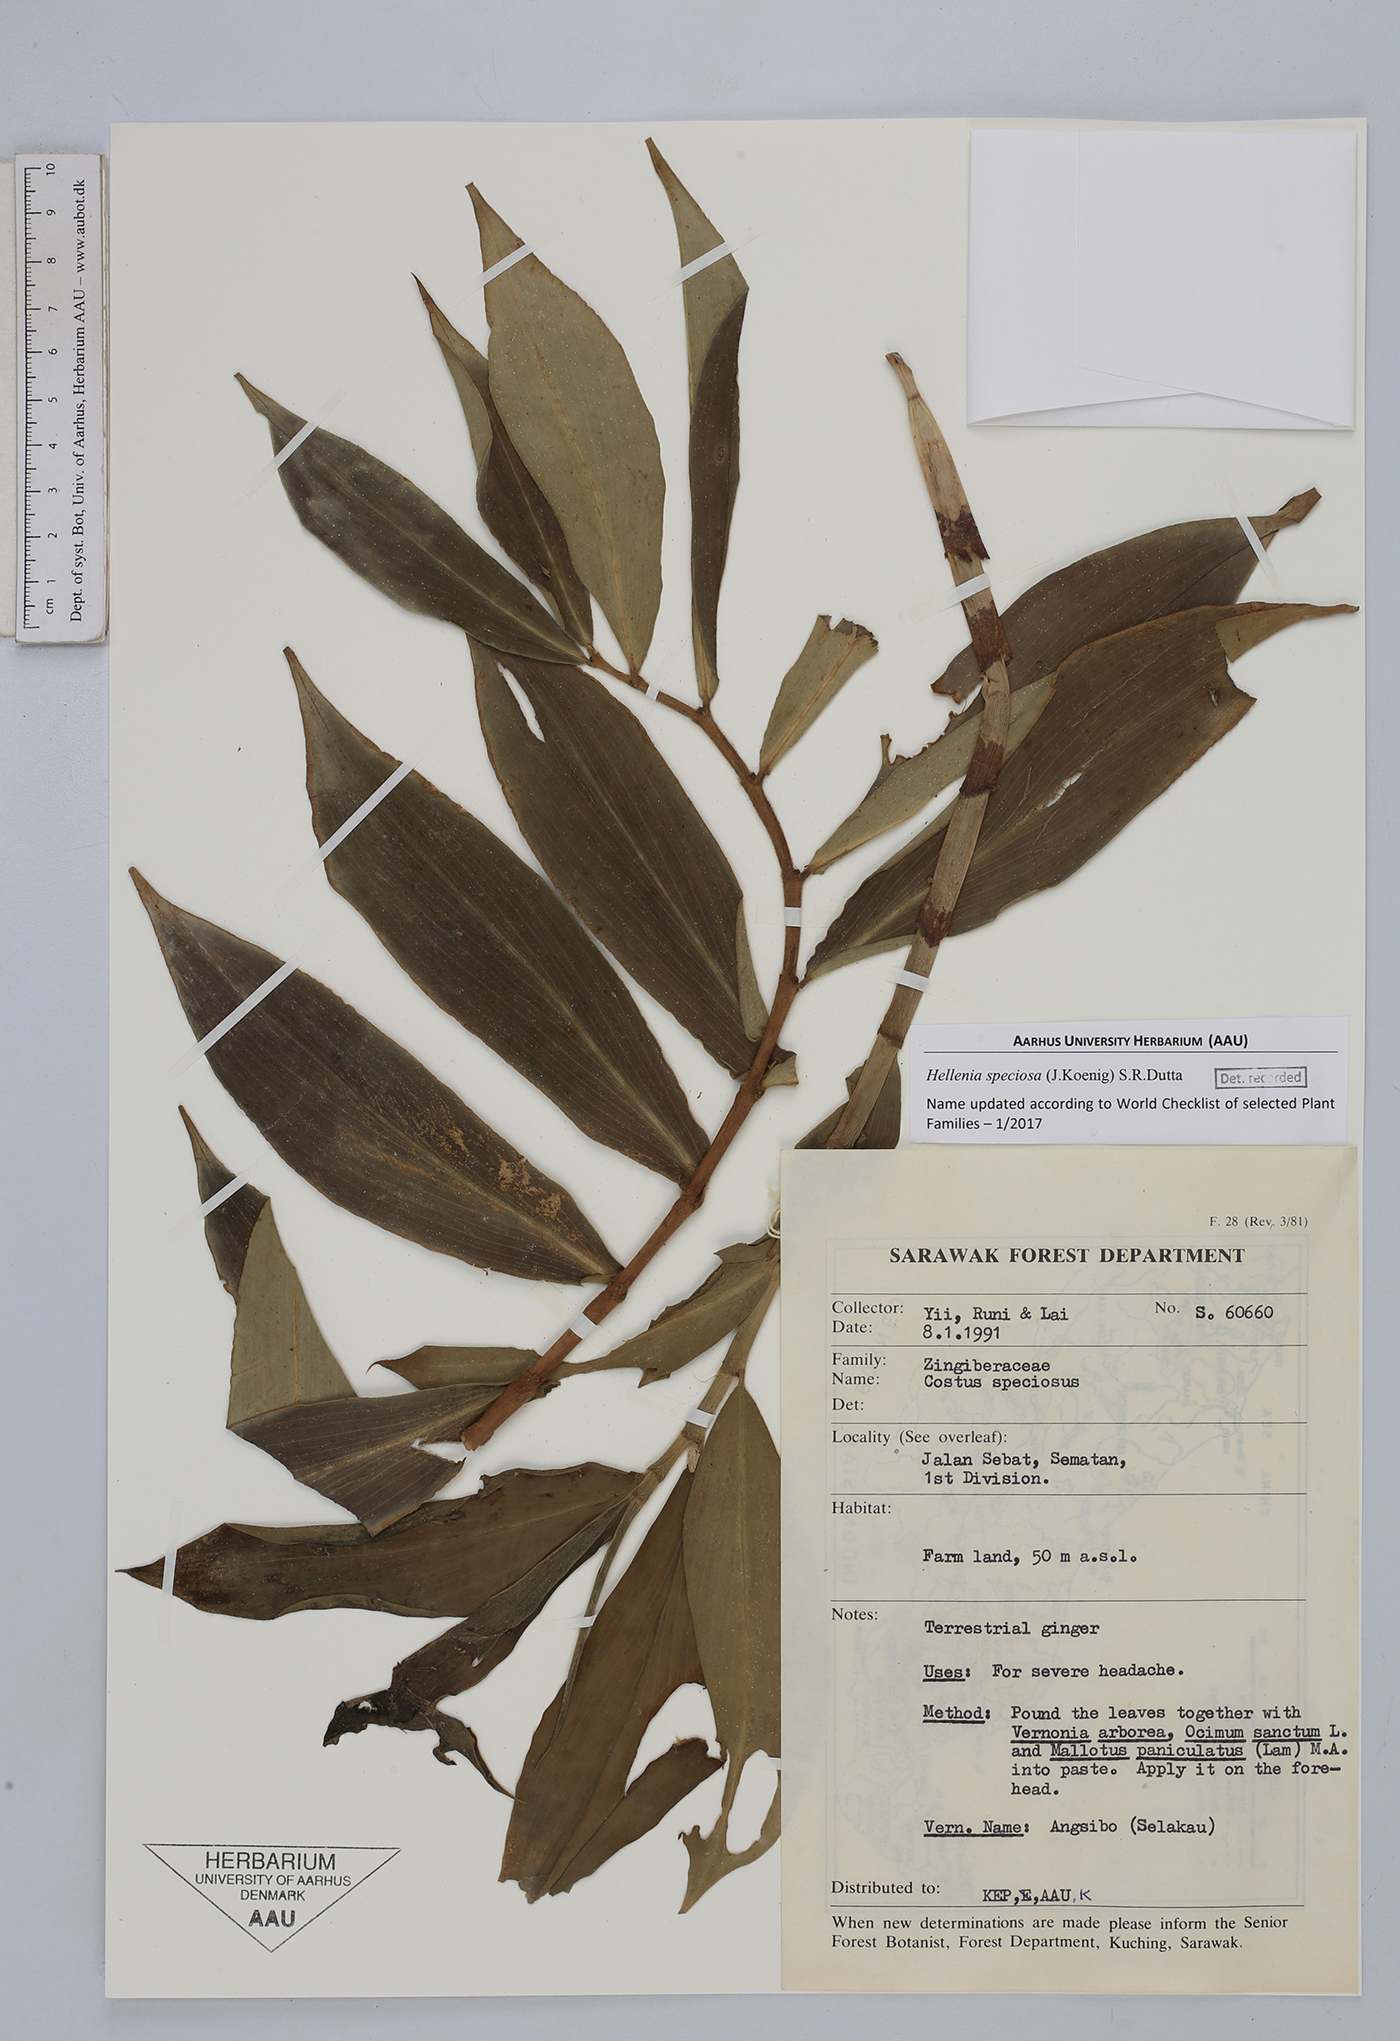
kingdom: Plantae
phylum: Tracheophyta
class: Liliopsida
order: Zingiberales
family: Costaceae
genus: Hellenia
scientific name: Hellenia speciosa
